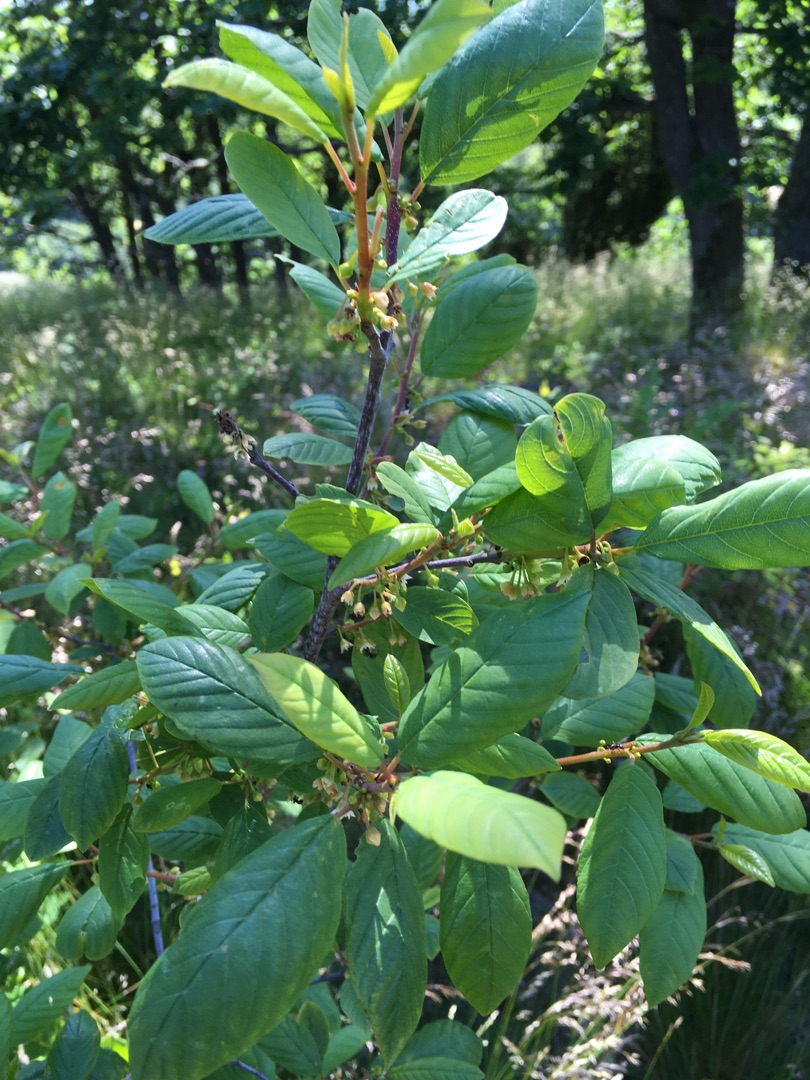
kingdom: Plantae
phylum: Tracheophyta
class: Magnoliopsida
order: Rosales
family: Rhamnaceae
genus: Frangula
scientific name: Frangula alnus
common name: Tørst
